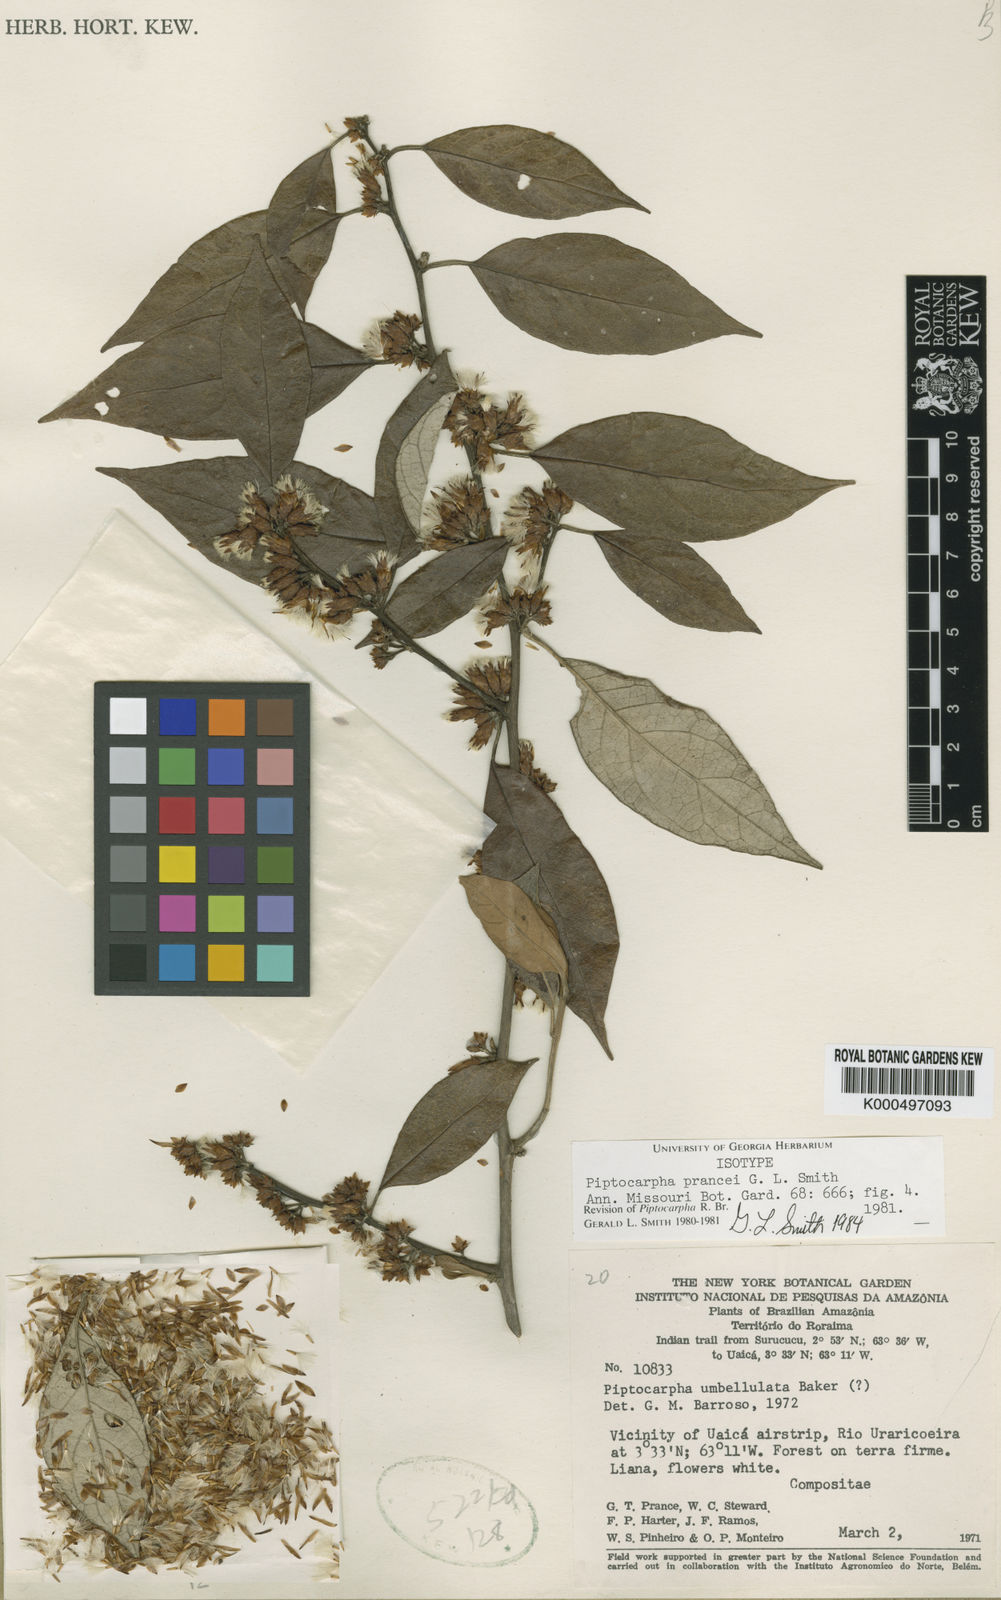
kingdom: Plantae
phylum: Tracheophyta
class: Magnoliopsida
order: Asterales
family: Asteraceae
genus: Piptocarpha
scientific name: Piptocarpha prancei
